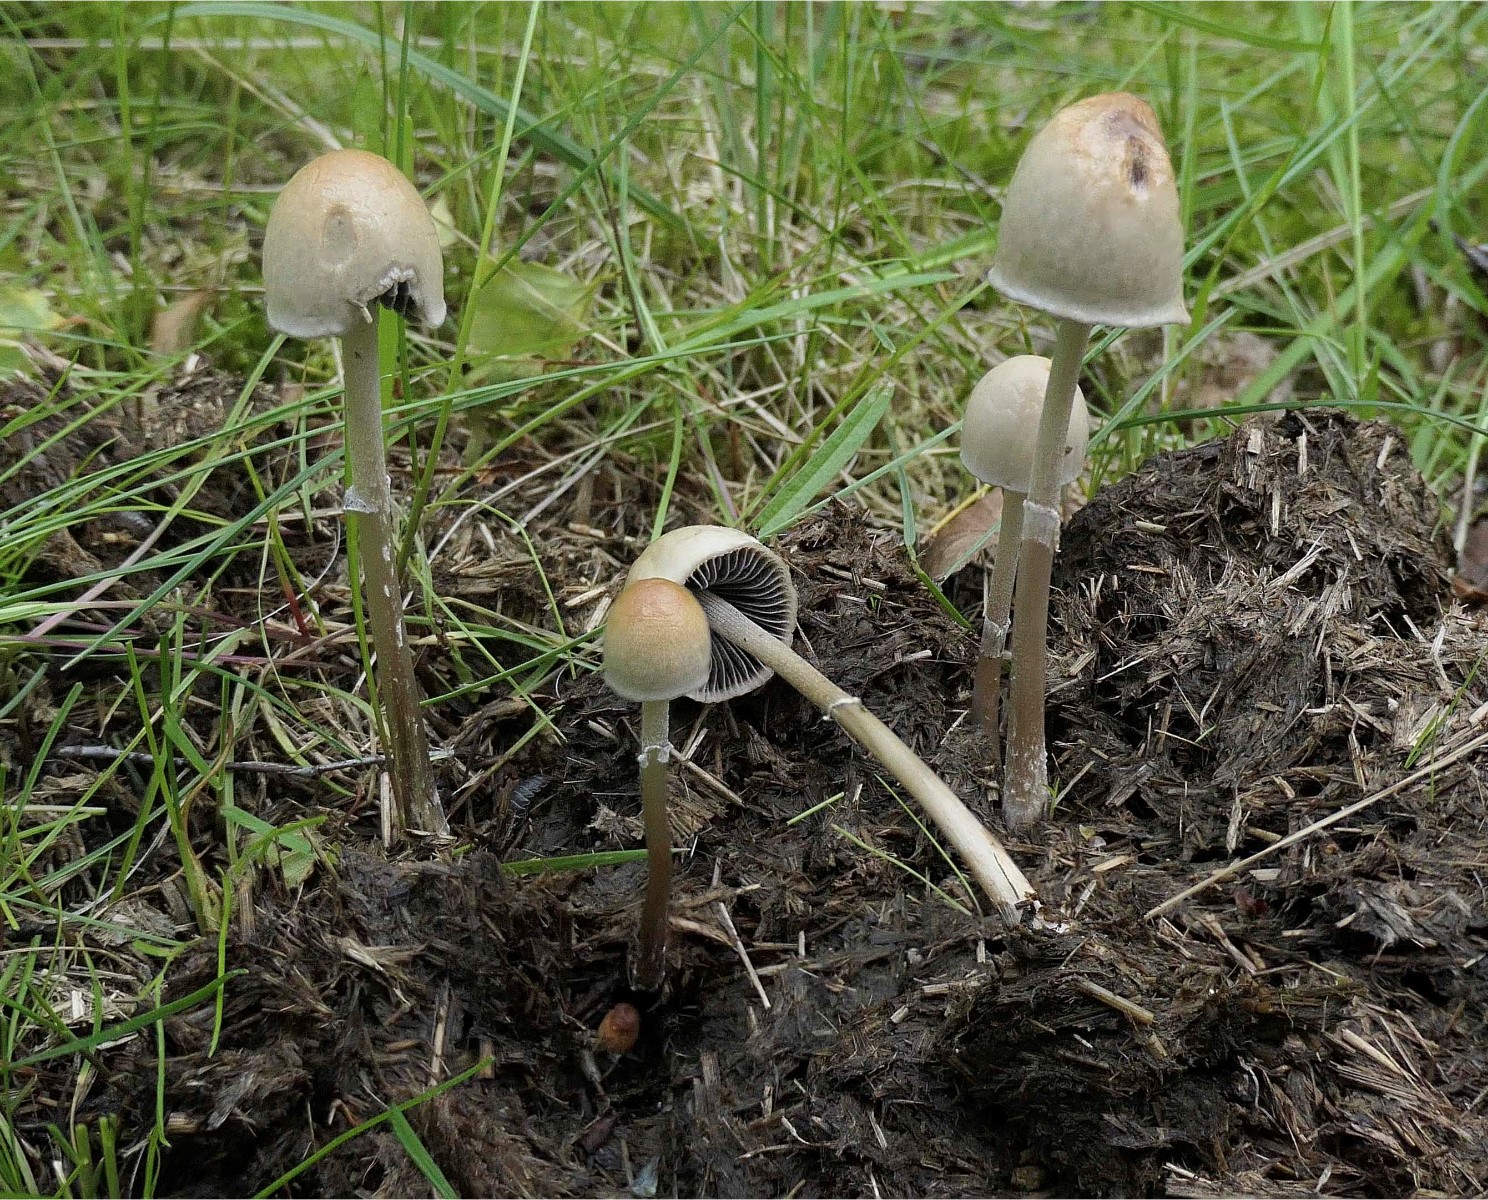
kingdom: Fungi
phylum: Basidiomycota
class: Agaricomycetes
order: Agaricales
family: Bolbitiaceae
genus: Panaeolus
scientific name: Panaeolus semiovatus
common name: ring-glanshat
